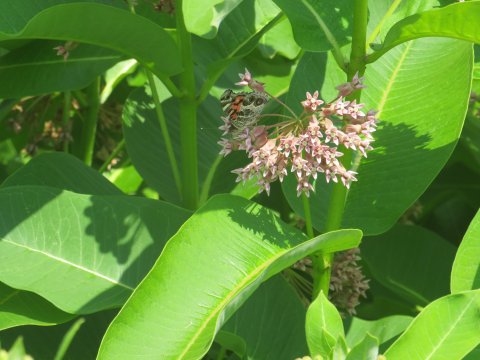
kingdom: Animalia
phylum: Arthropoda
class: Insecta
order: Lepidoptera
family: Nymphalidae
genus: Vanessa
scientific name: Vanessa virginiensis
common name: American Lady
